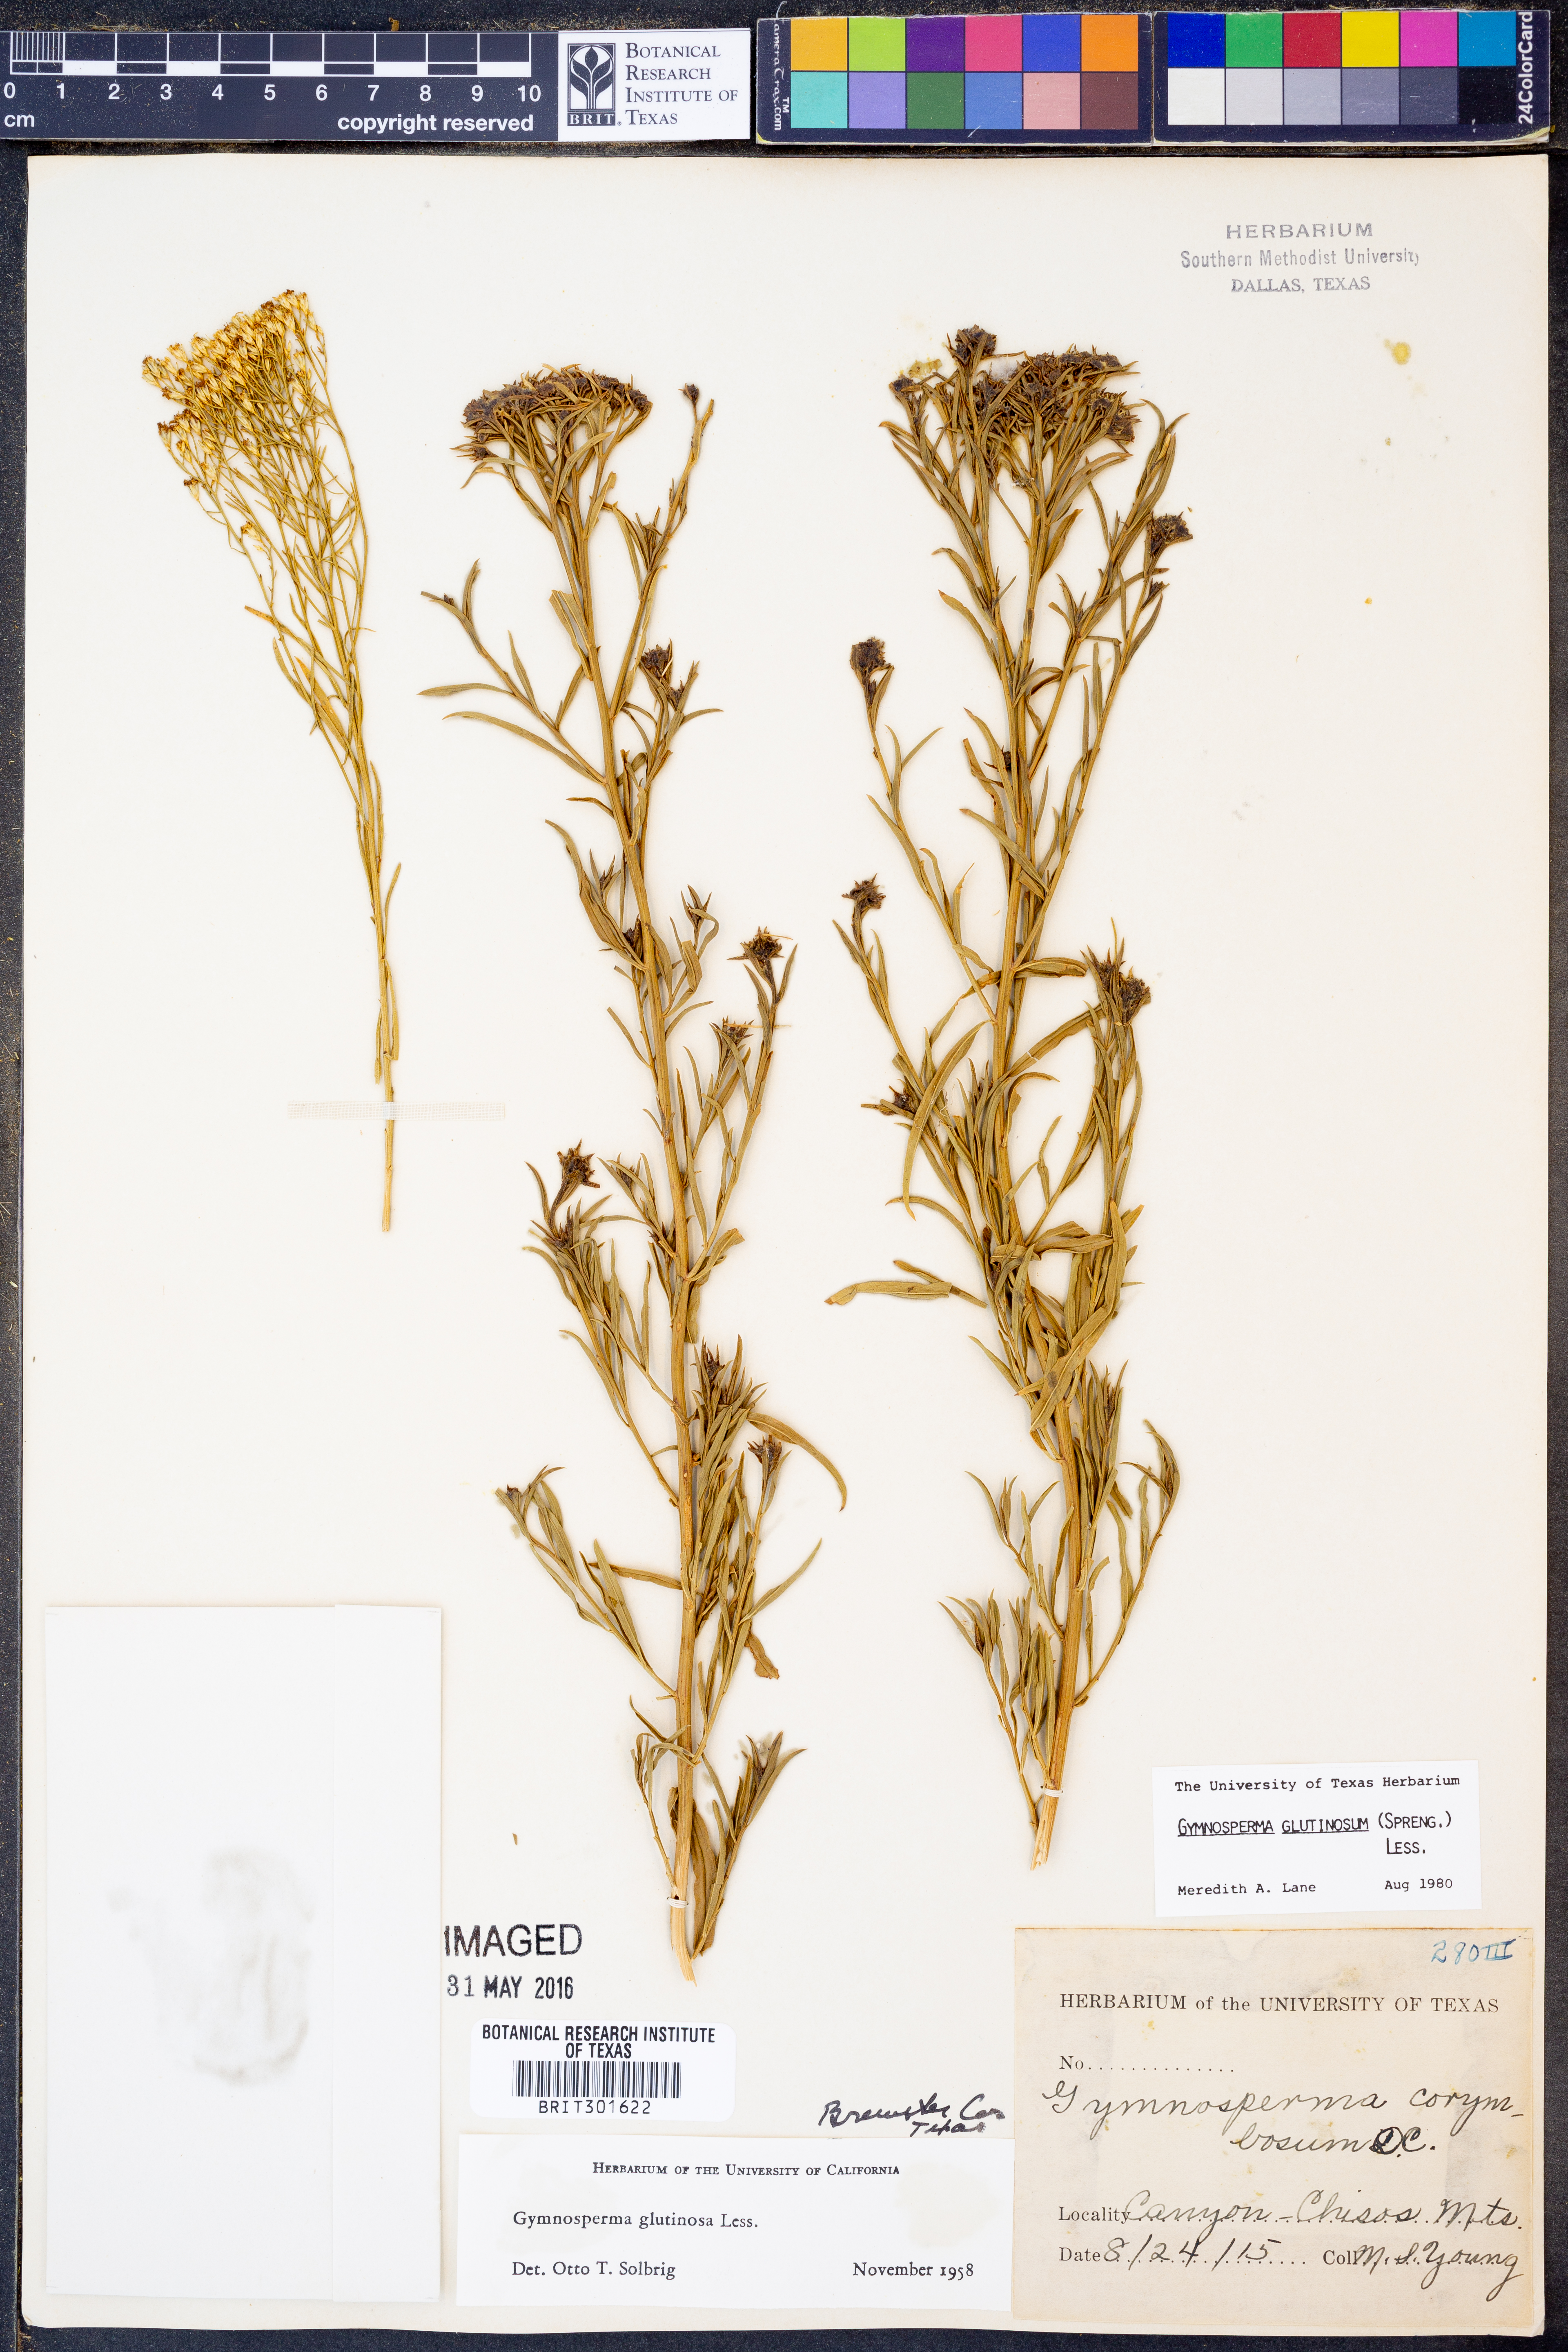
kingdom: Plantae
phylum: Tracheophyta
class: Magnoliopsida
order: Asterales
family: Asteraceae
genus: Gymnosperma
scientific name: Gymnosperma glutinosum
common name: Gumhead
